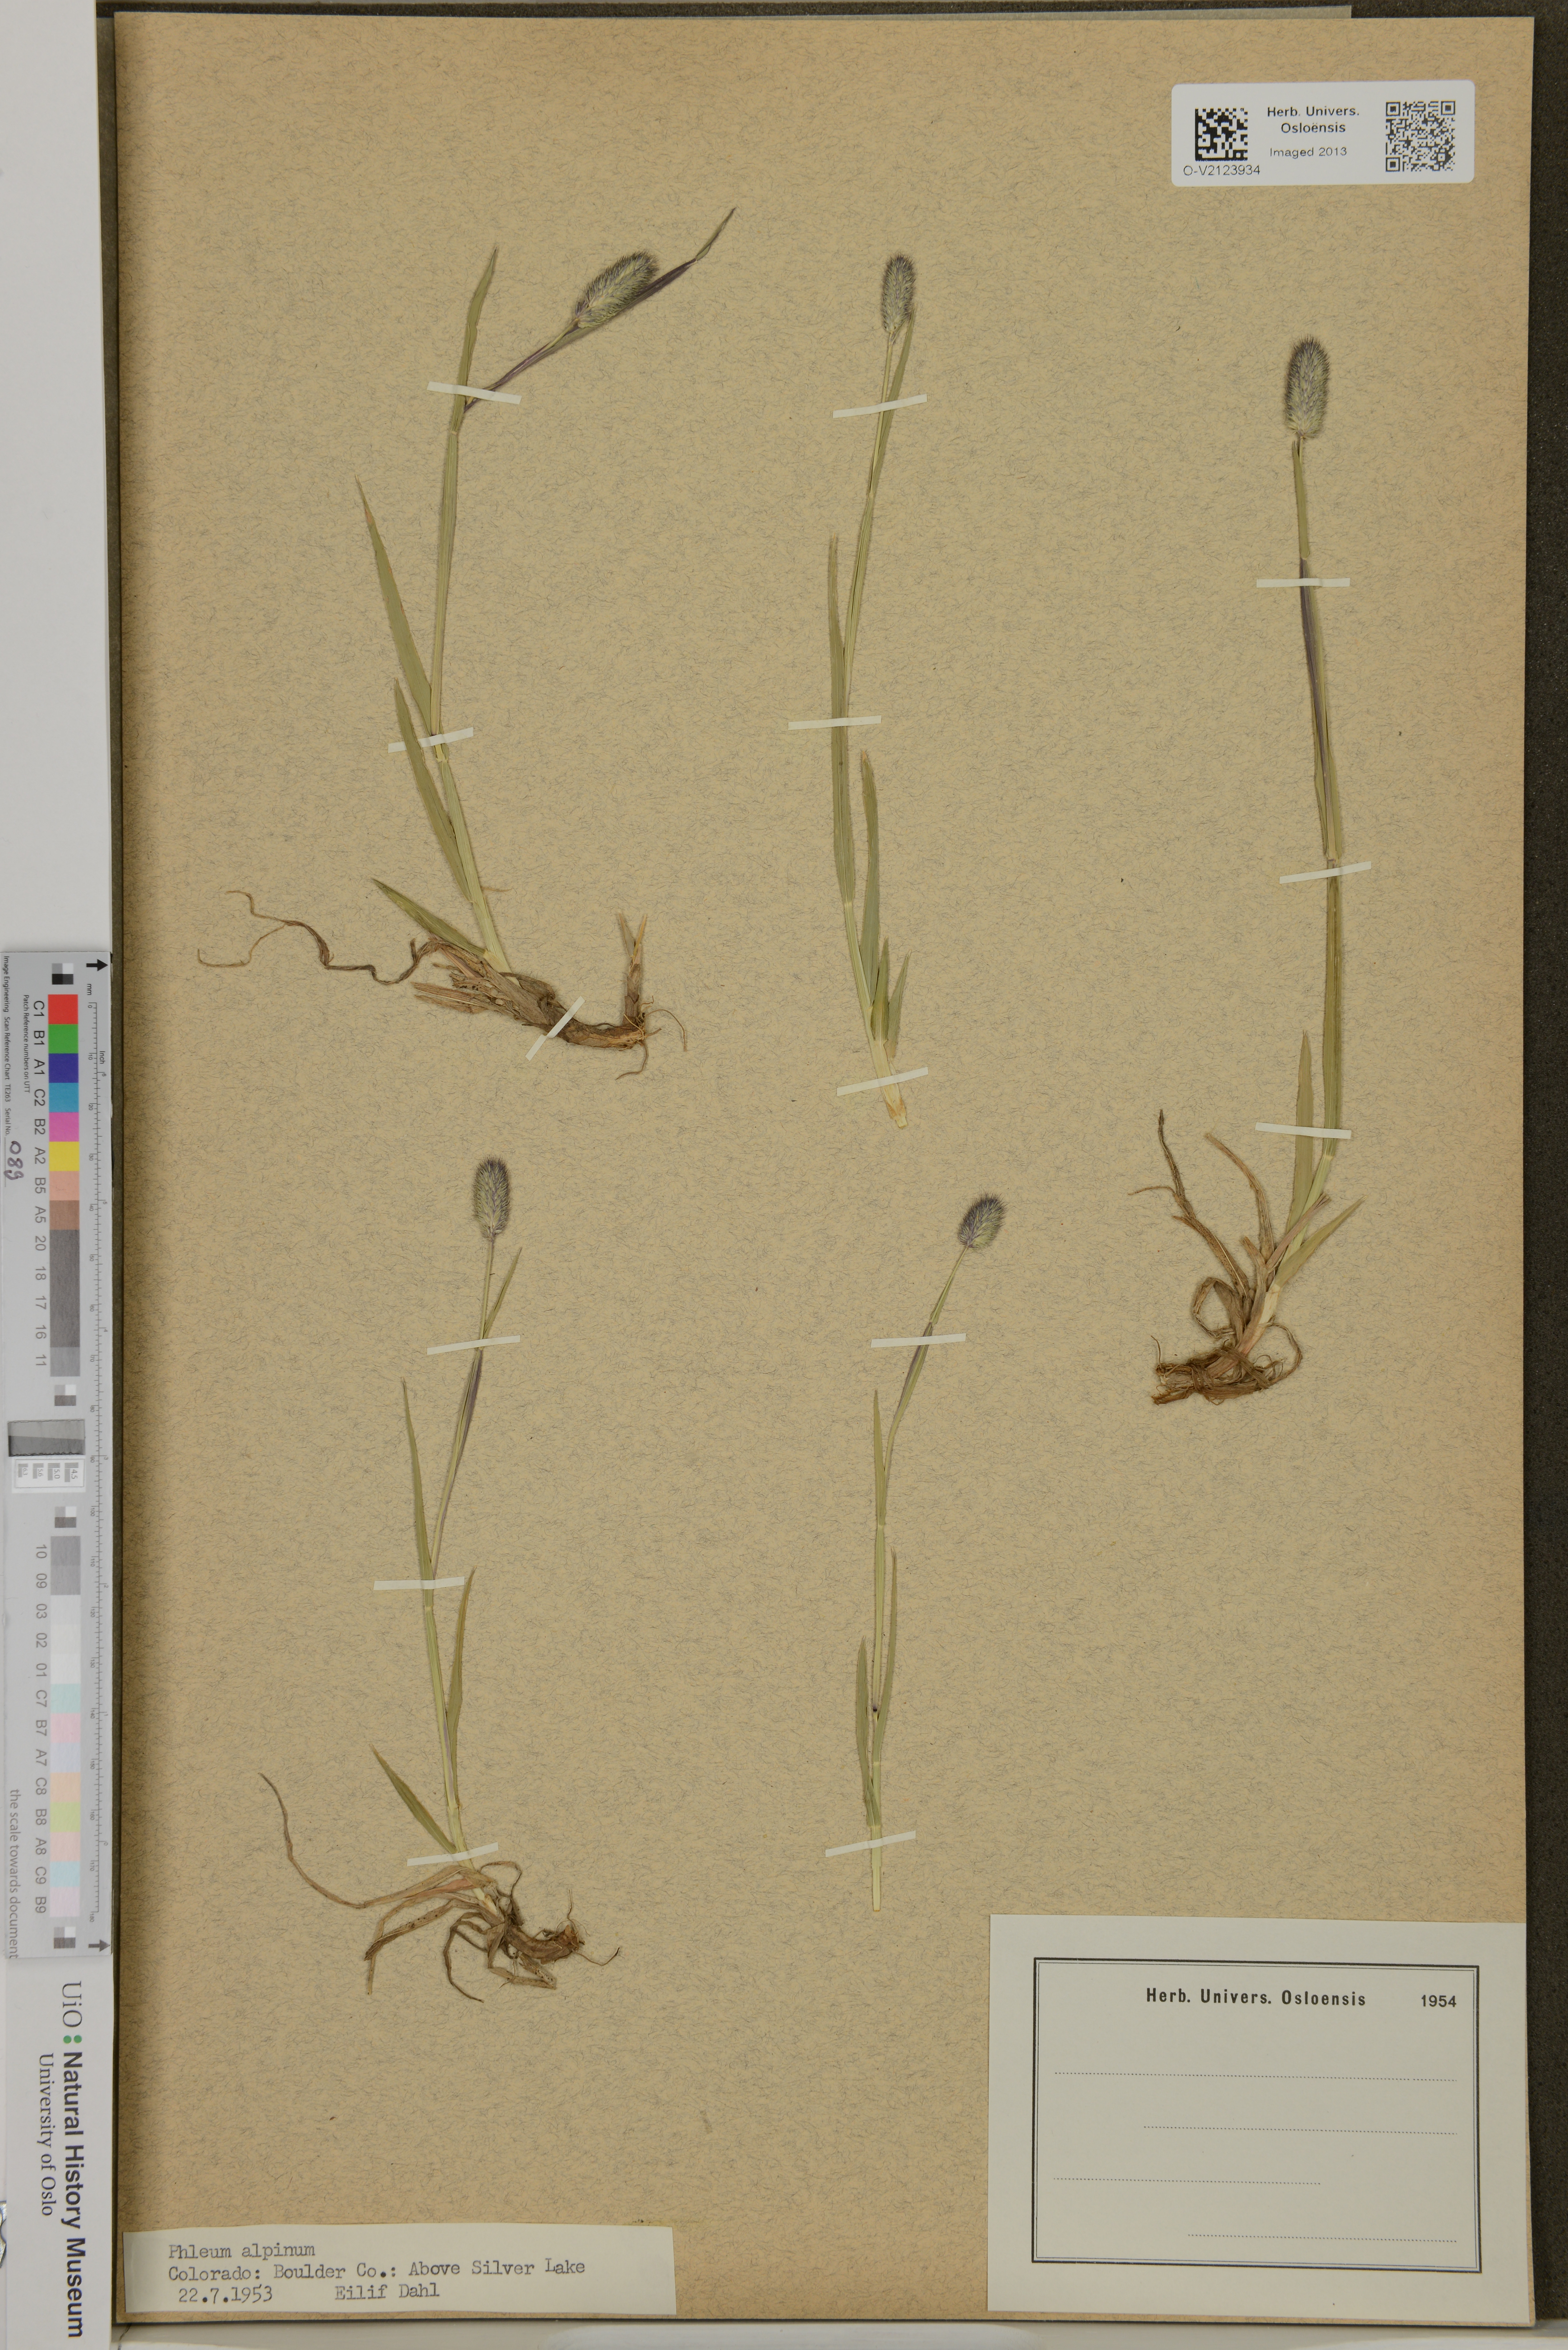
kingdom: Plantae
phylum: Tracheophyta
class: Liliopsida
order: Poales
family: Poaceae
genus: Phleum
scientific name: Phleum alpinum
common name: Alpine cat's-tail
